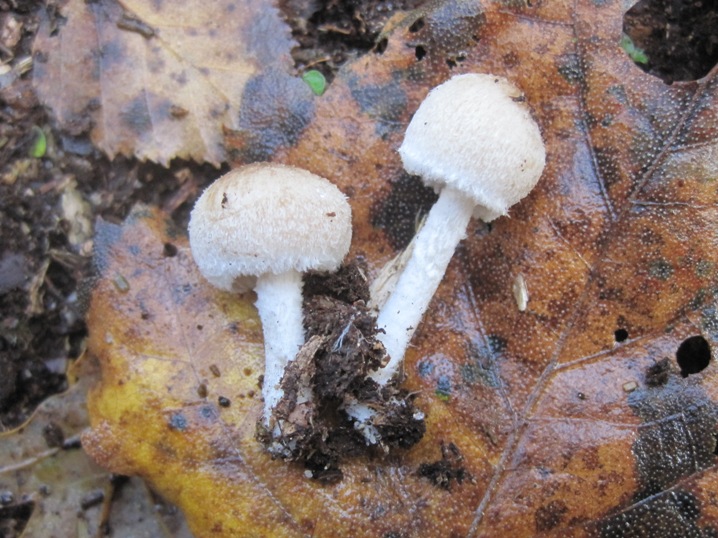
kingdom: Fungi
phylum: Basidiomycota
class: Agaricomycetes
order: Agaricales
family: Psathyrellaceae
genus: Psathyrella
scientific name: Psathyrella fibrillosa
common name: almindelig mørkhat
